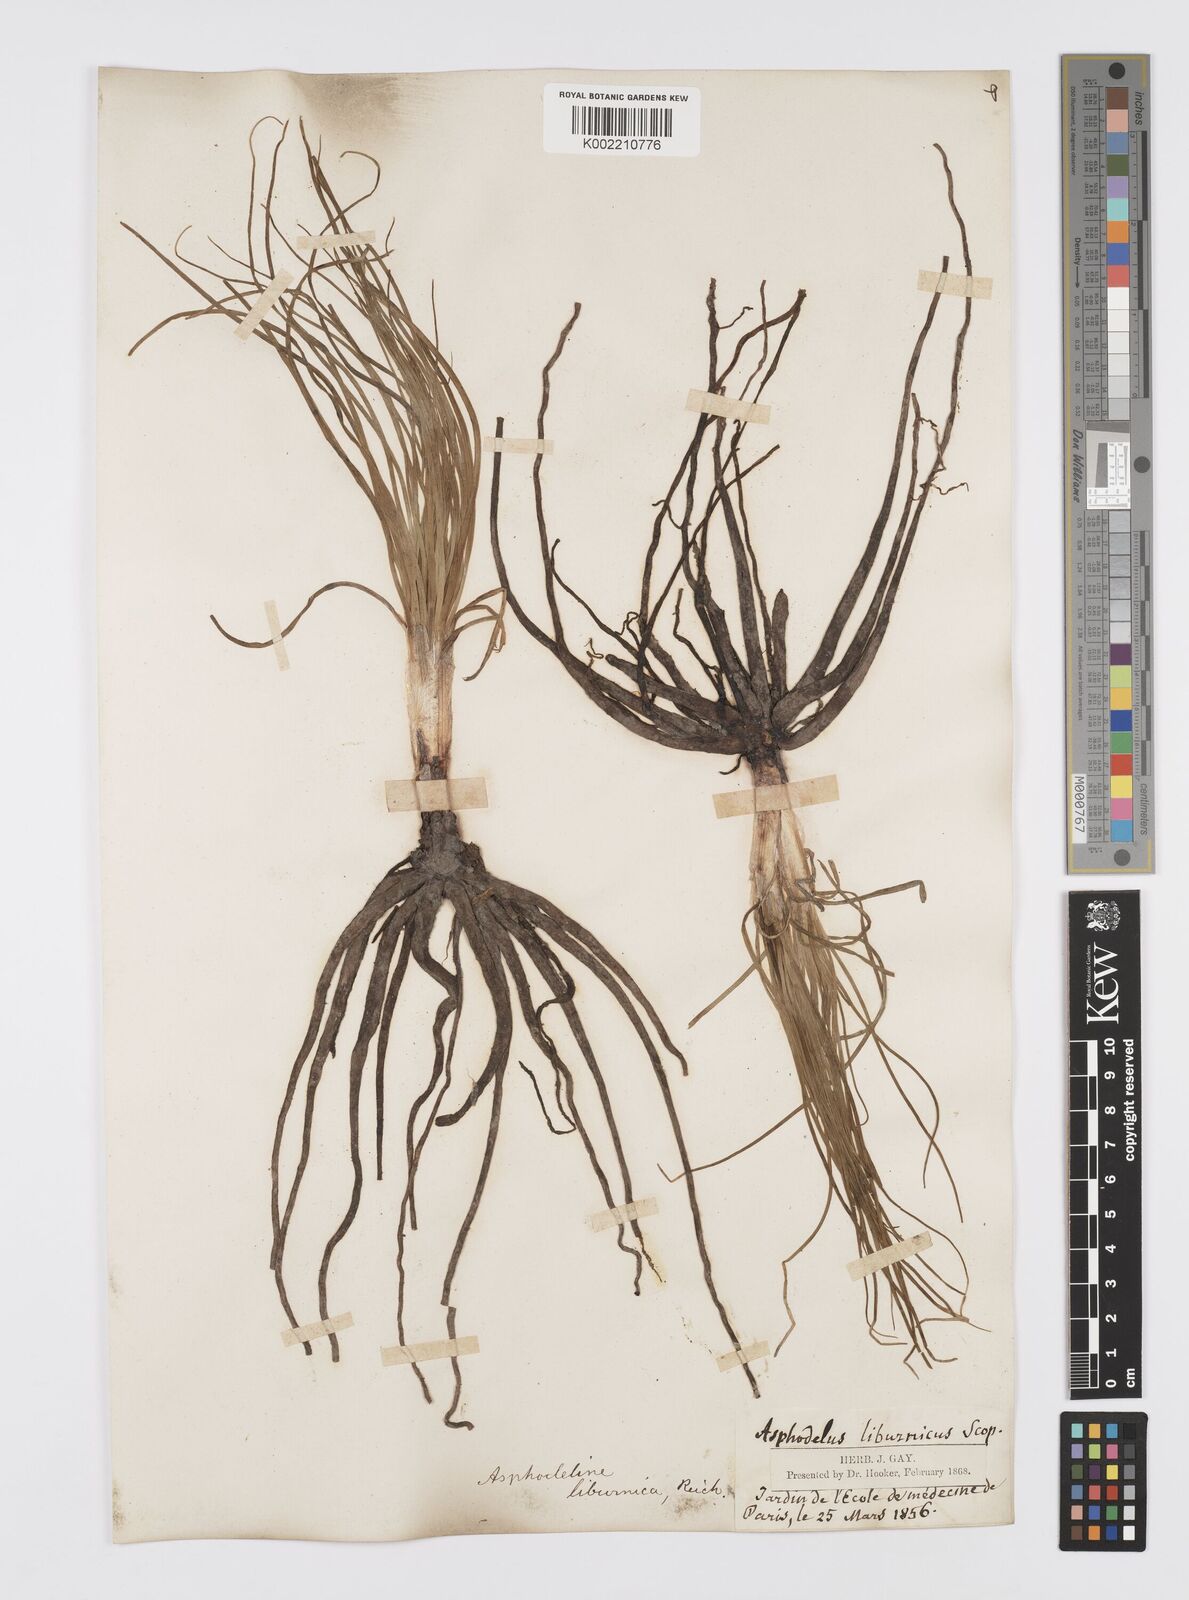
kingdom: Plantae
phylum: Tracheophyta
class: Liliopsida
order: Asparagales
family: Asphodelaceae
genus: Asphodeline
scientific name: Asphodeline brevicaulis
